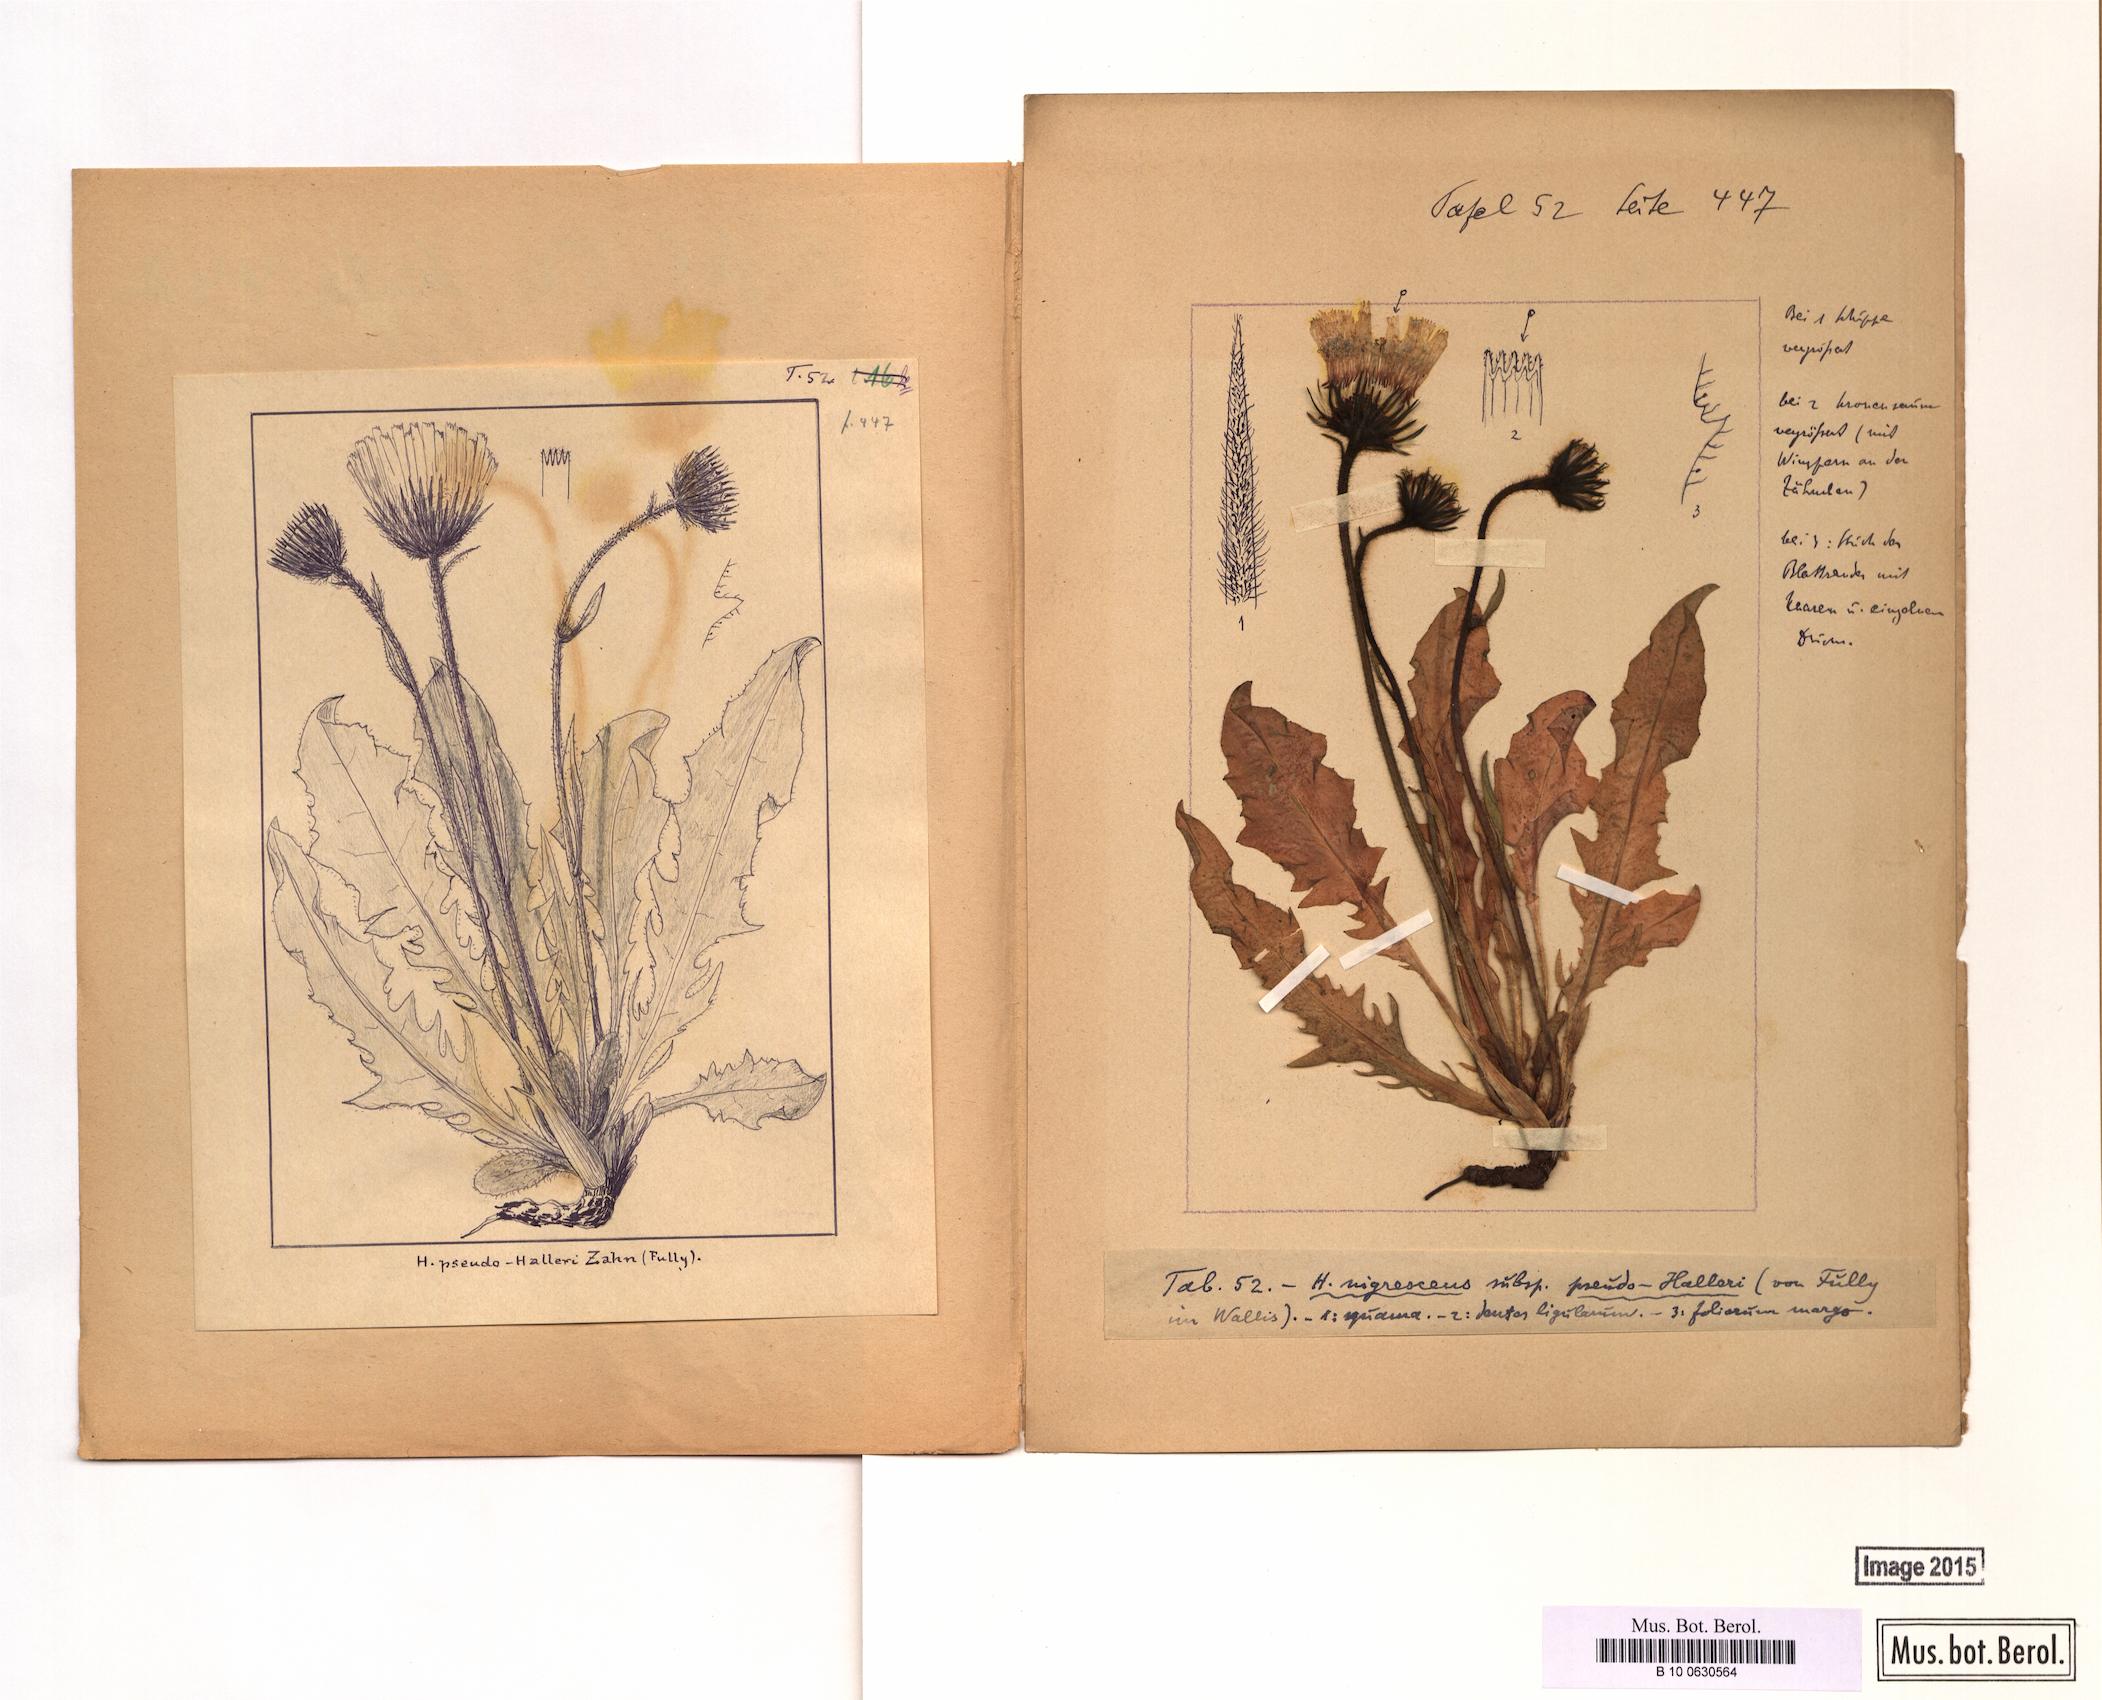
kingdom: Plantae
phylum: Tracheophyta
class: Magnoliopsida
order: Asterales
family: Asteraceae
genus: Hieracium
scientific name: Hieracium nigrescens
